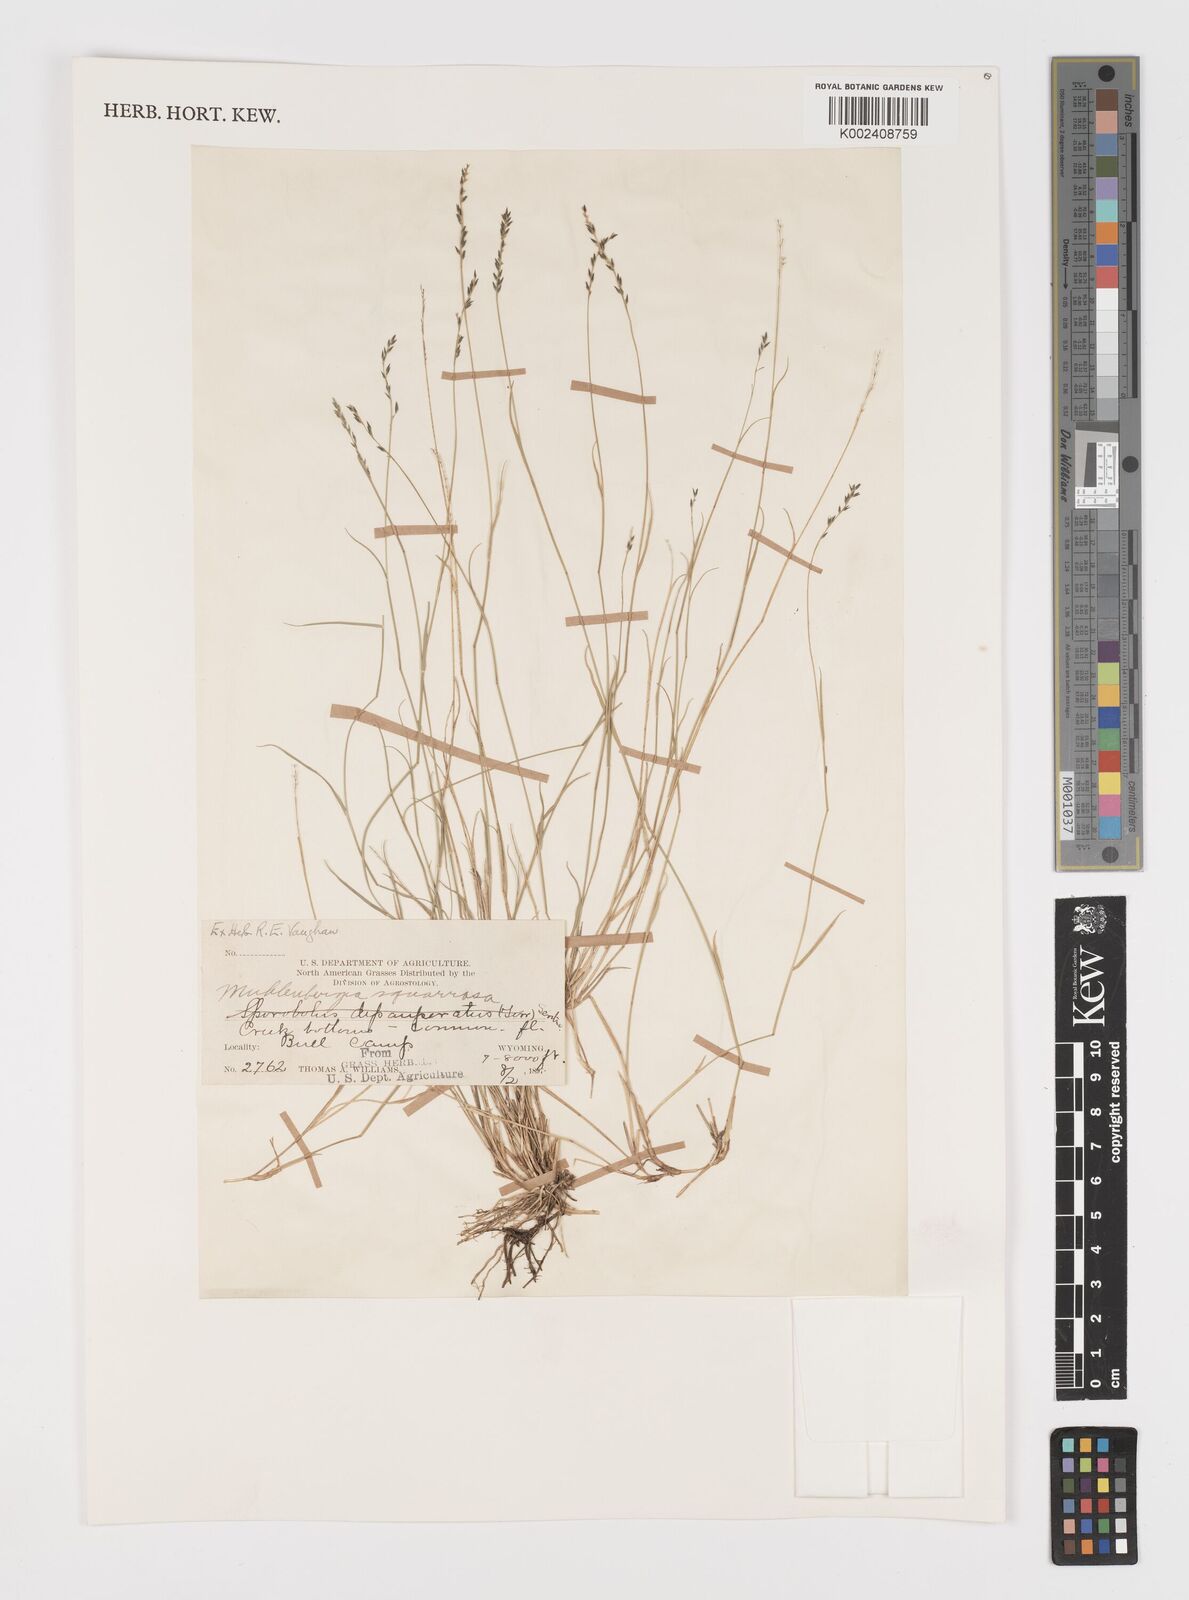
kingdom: Plantae
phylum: Tracheophyta
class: Liliopsida
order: Poales
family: Poaceae
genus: Muhlenbergia
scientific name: Muhlenbergia richardsonis
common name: Mat muhly
